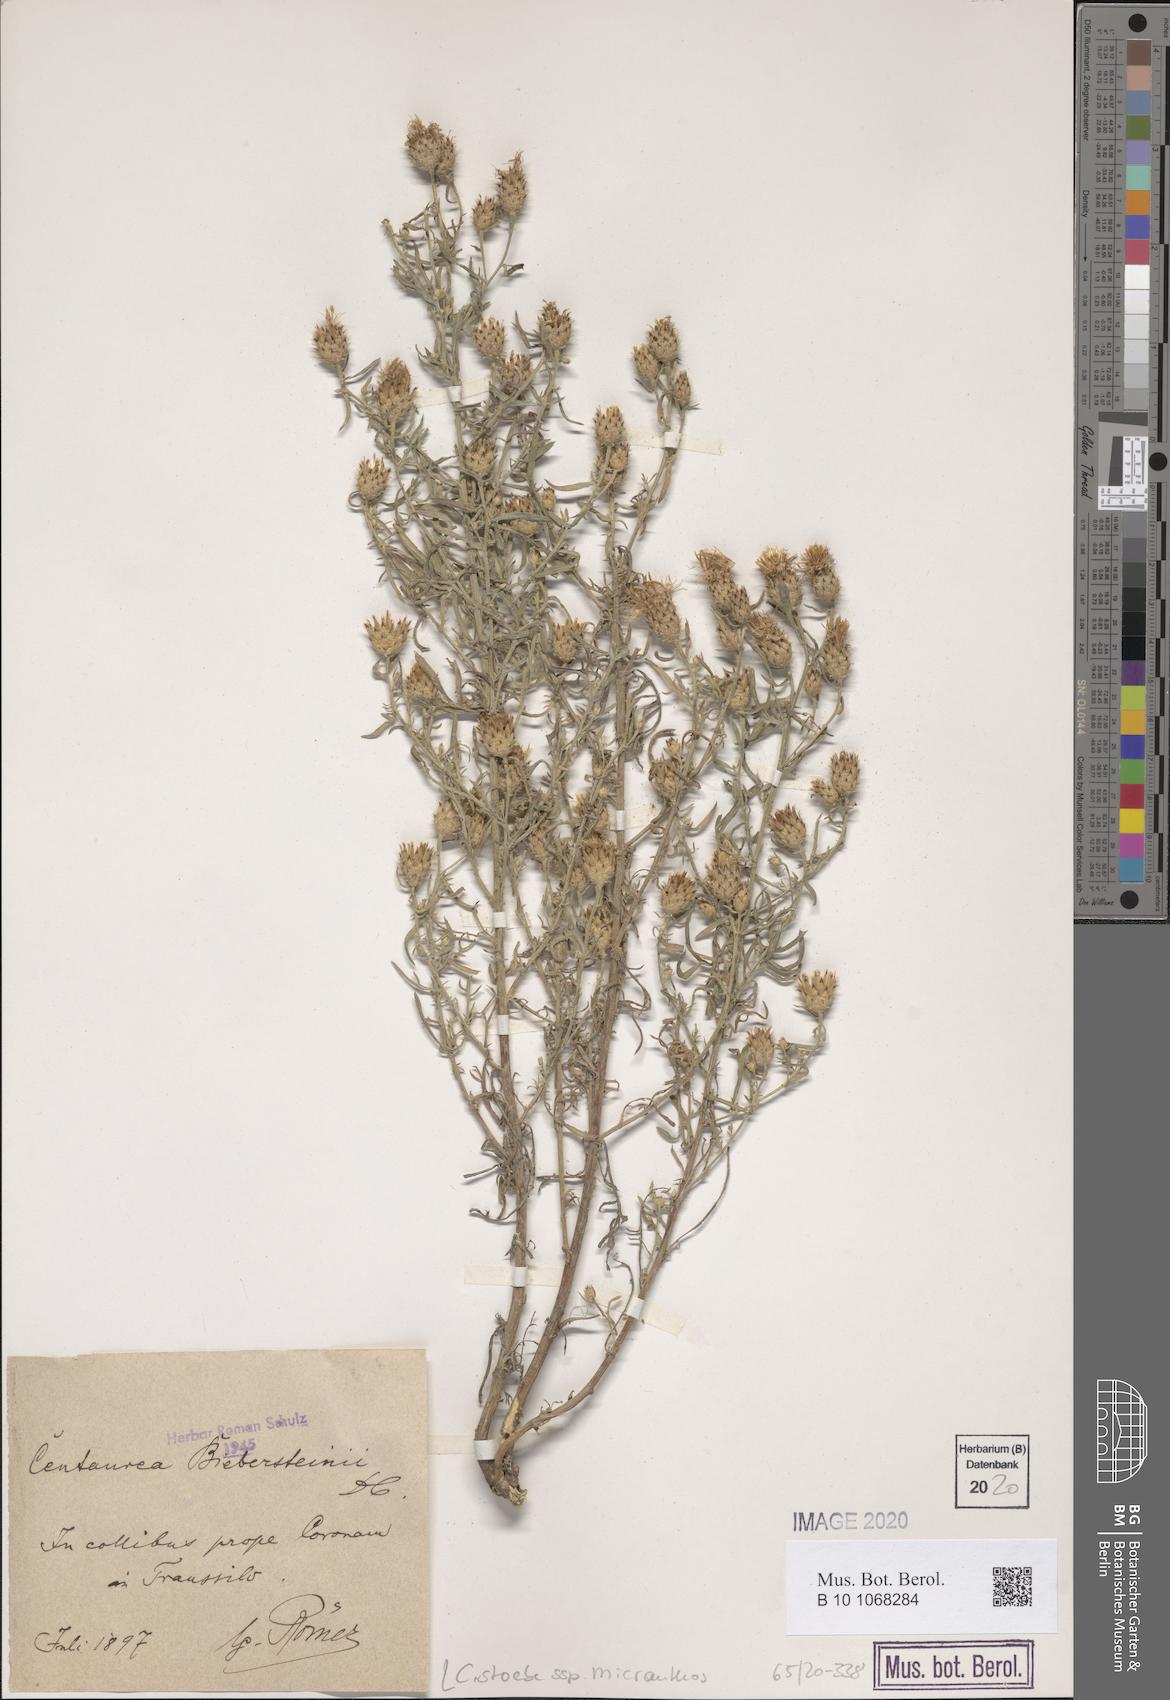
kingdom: Plantae
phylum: Tracheophyta
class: Magnoliopsida
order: Asterales
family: Asteraceae
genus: Centaurea
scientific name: Centaurea australis
